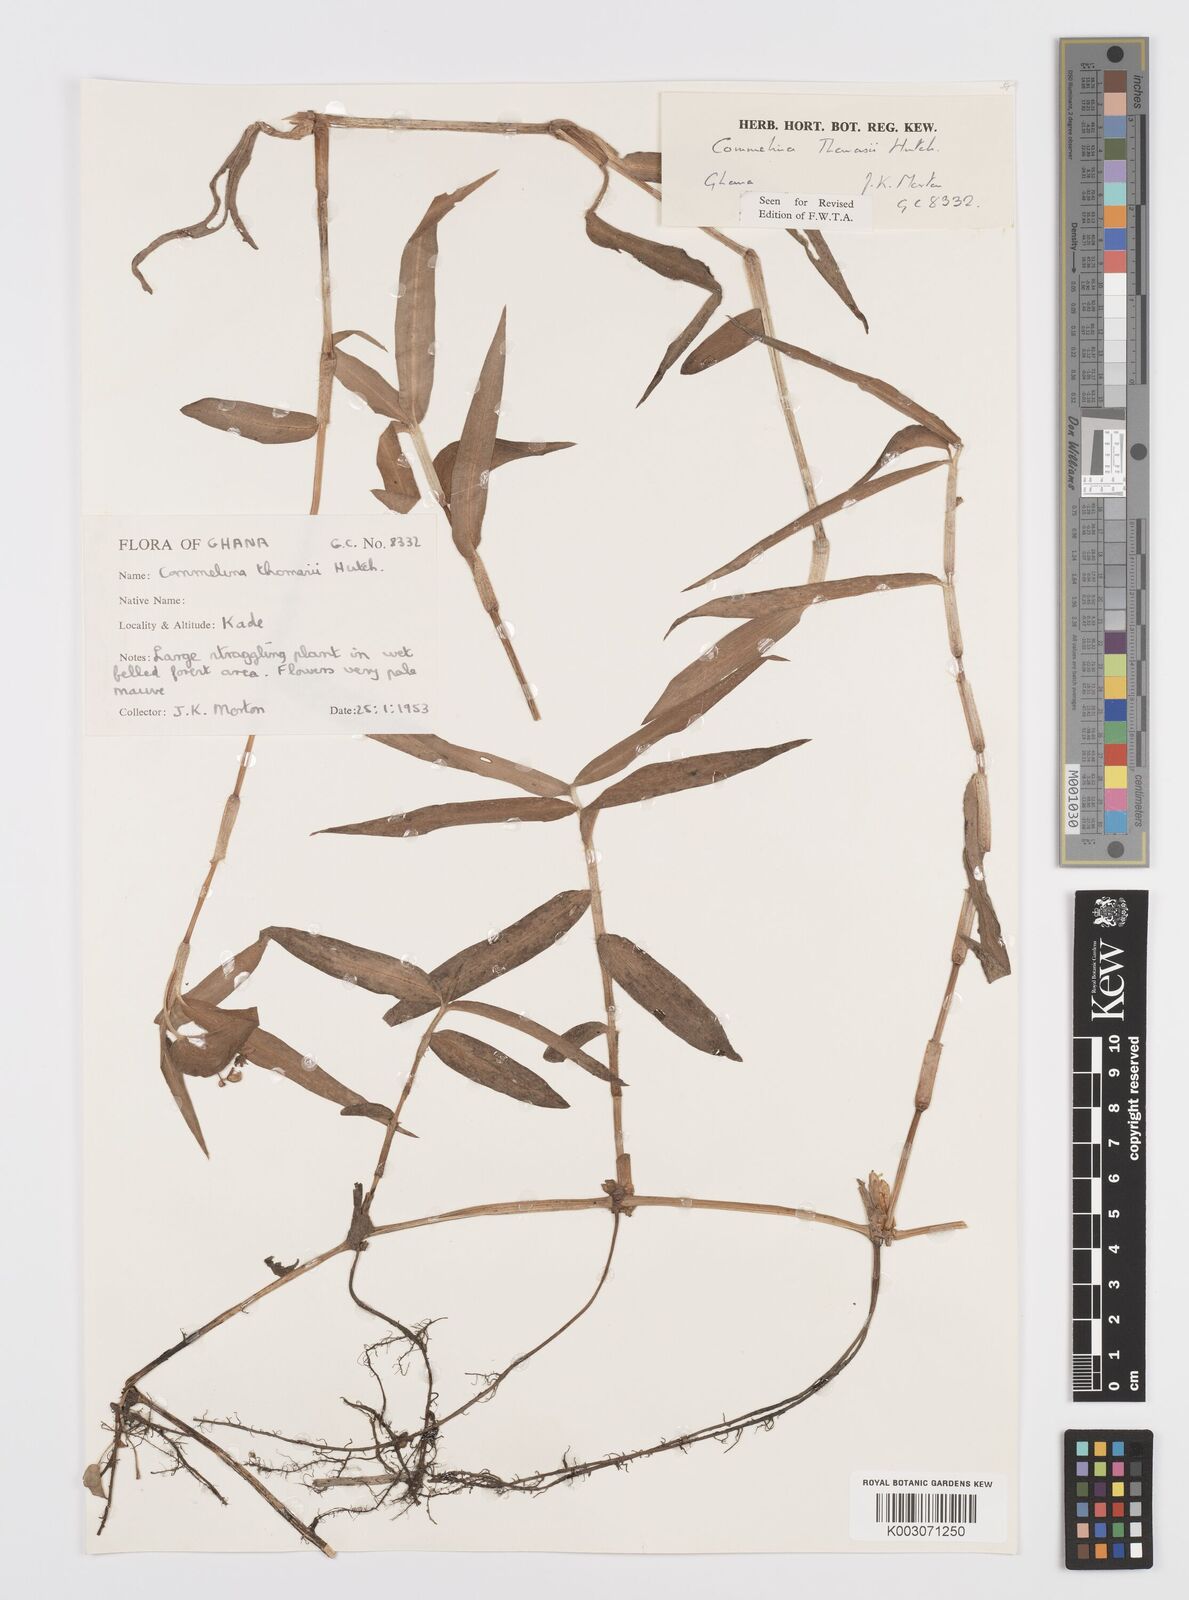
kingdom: Plantae
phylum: Tracheophyta
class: Liliopsida
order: Commelinales
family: Commelinaceae
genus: Commelina
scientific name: Commelina acutispatha
